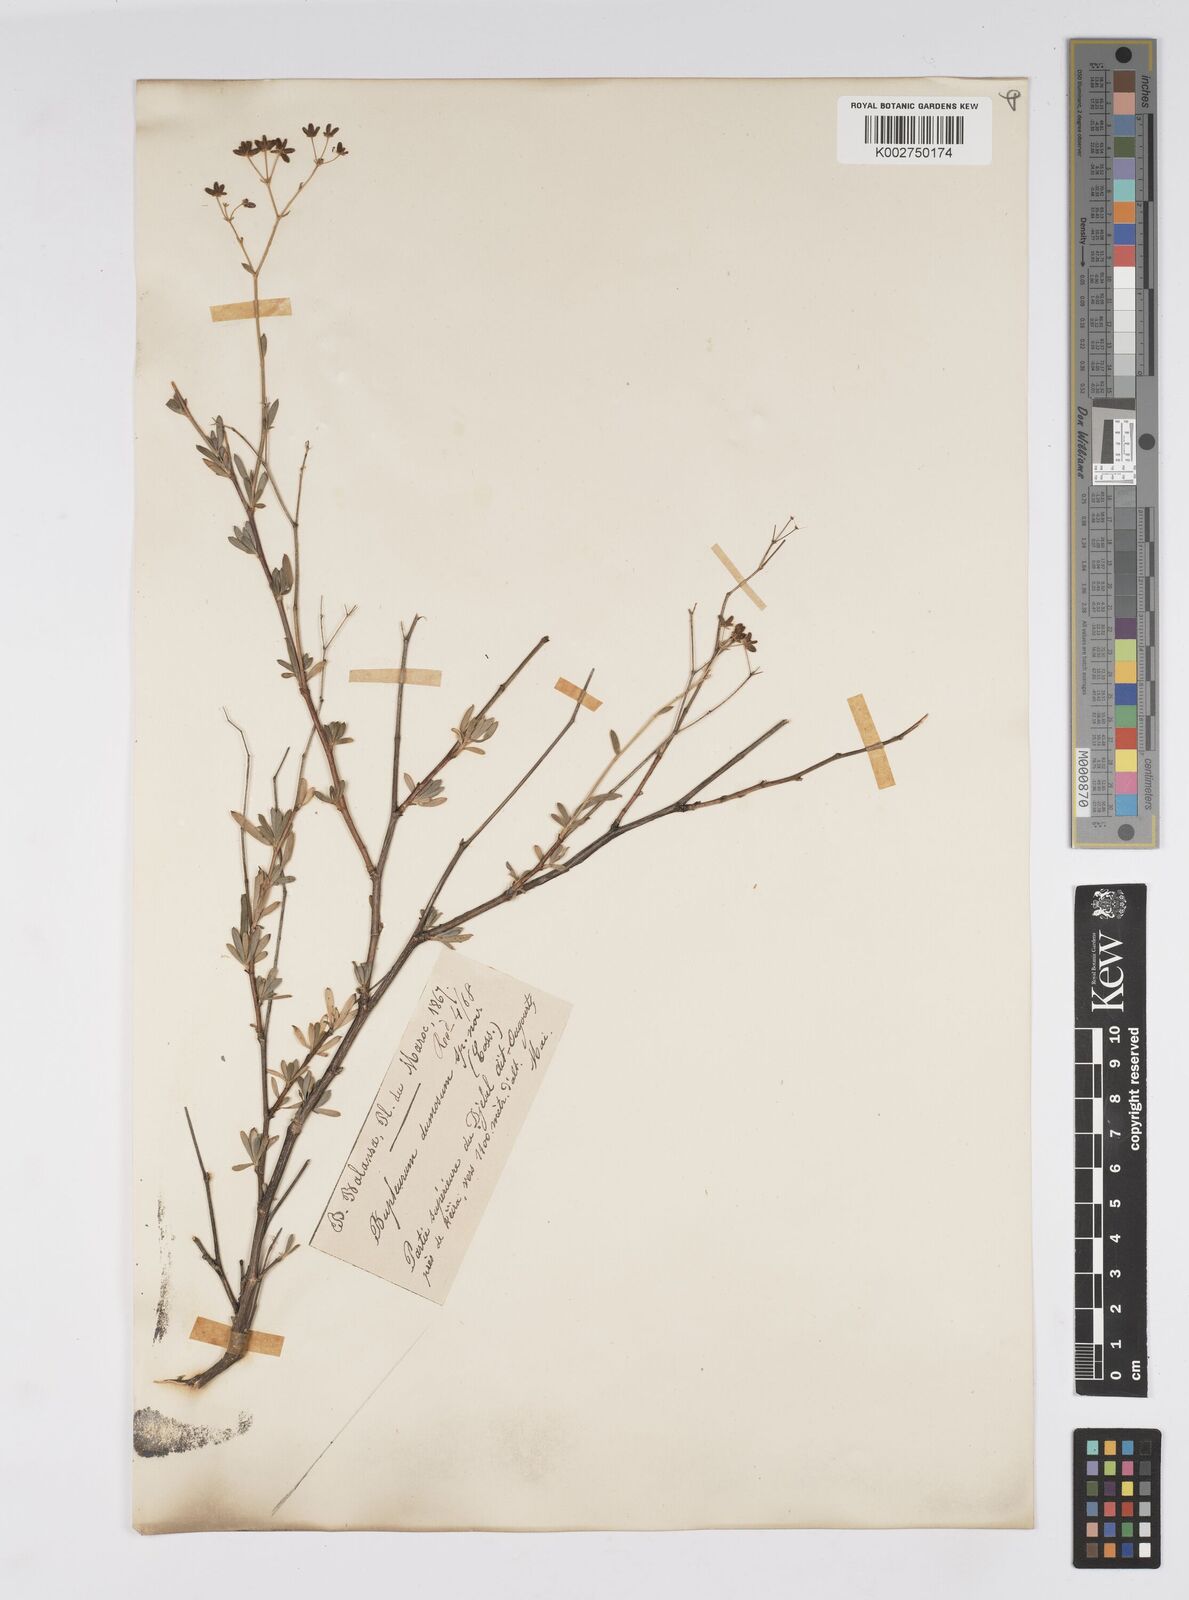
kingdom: Plantae
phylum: Tracheophyta
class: Magnoliopsida
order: Apiales
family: Apiaceae
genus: Bupleurum
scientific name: Bupleurum dumosum
